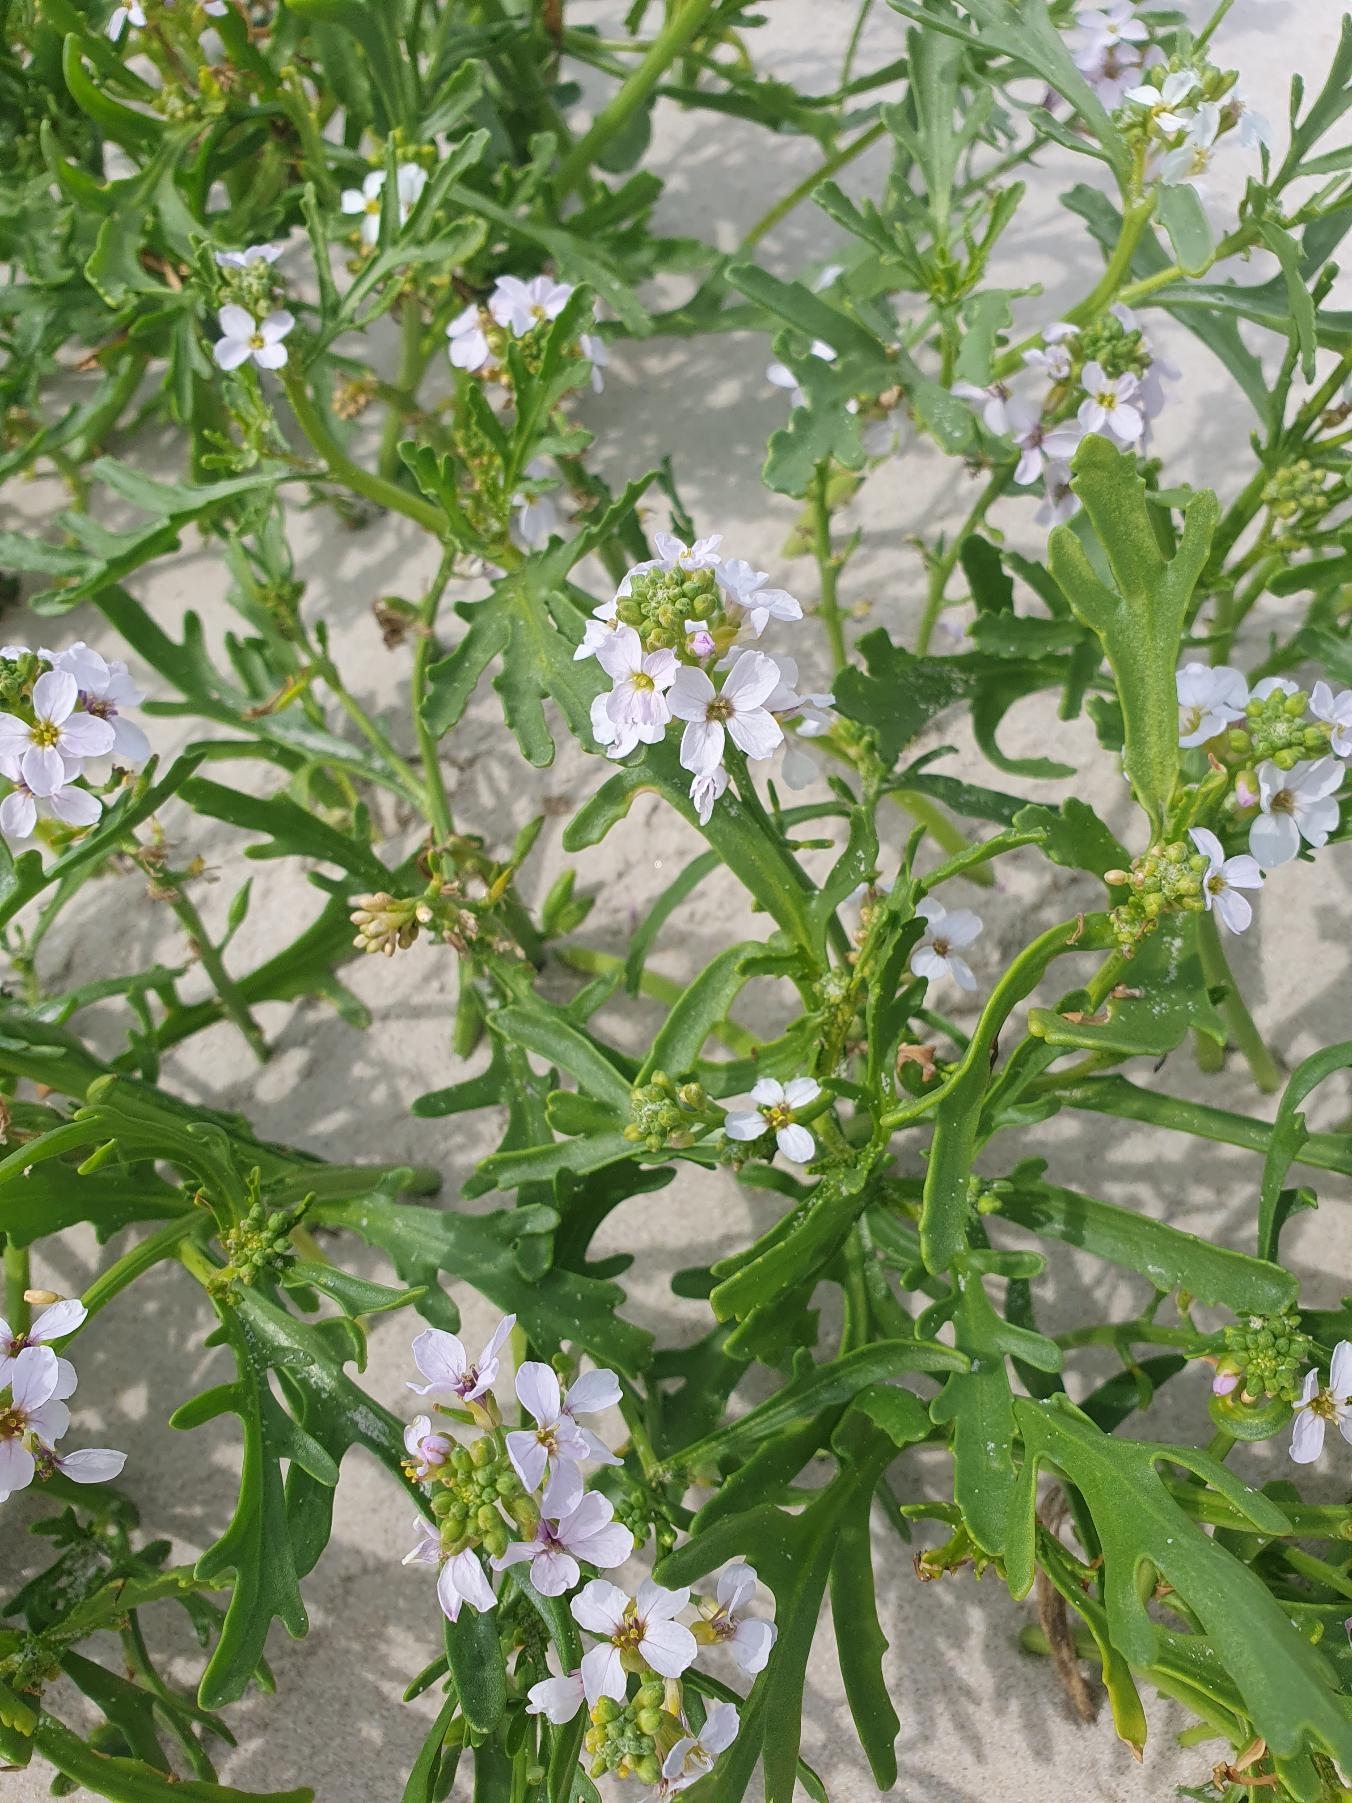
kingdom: Plantae
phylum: Tracheophyta
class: Magnoliopsida
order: Brassicales
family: Brassicaceae
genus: Cakile
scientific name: Cakile maritima
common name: Strandsennep
